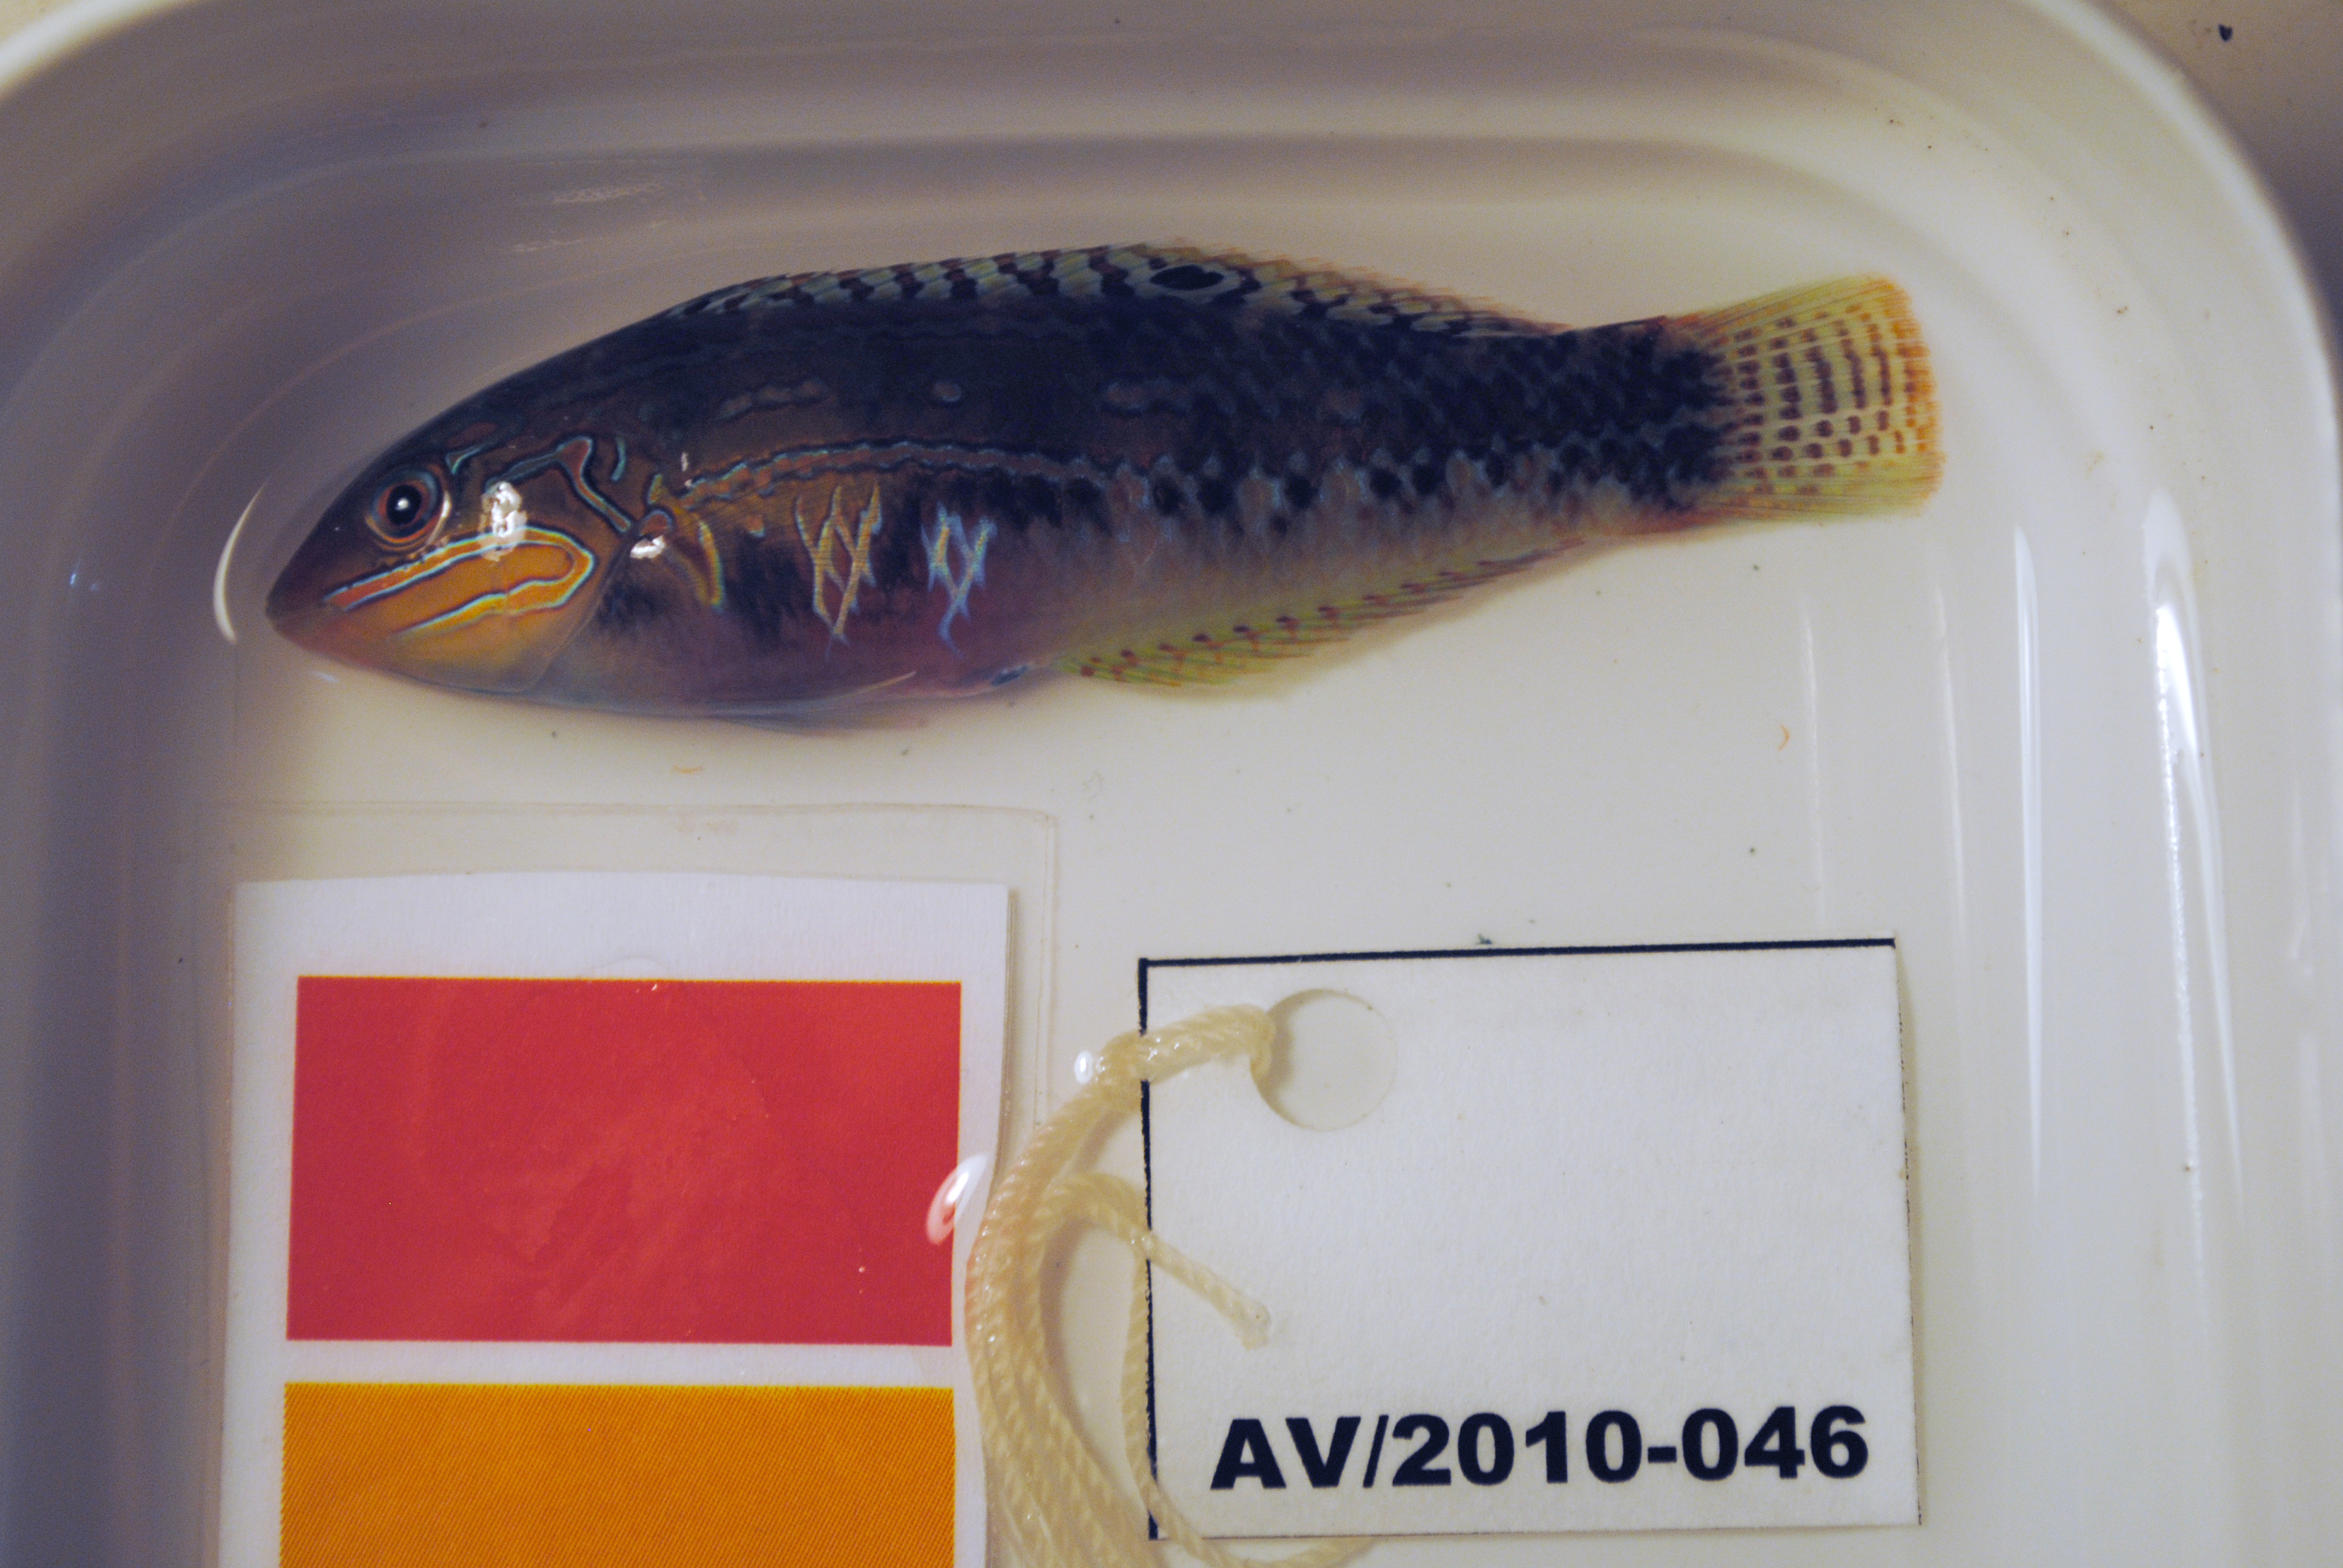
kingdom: Animalia
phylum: Chordata
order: Perciformes
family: Labridae
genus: Halichoeres
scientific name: Halichoeres zulu
